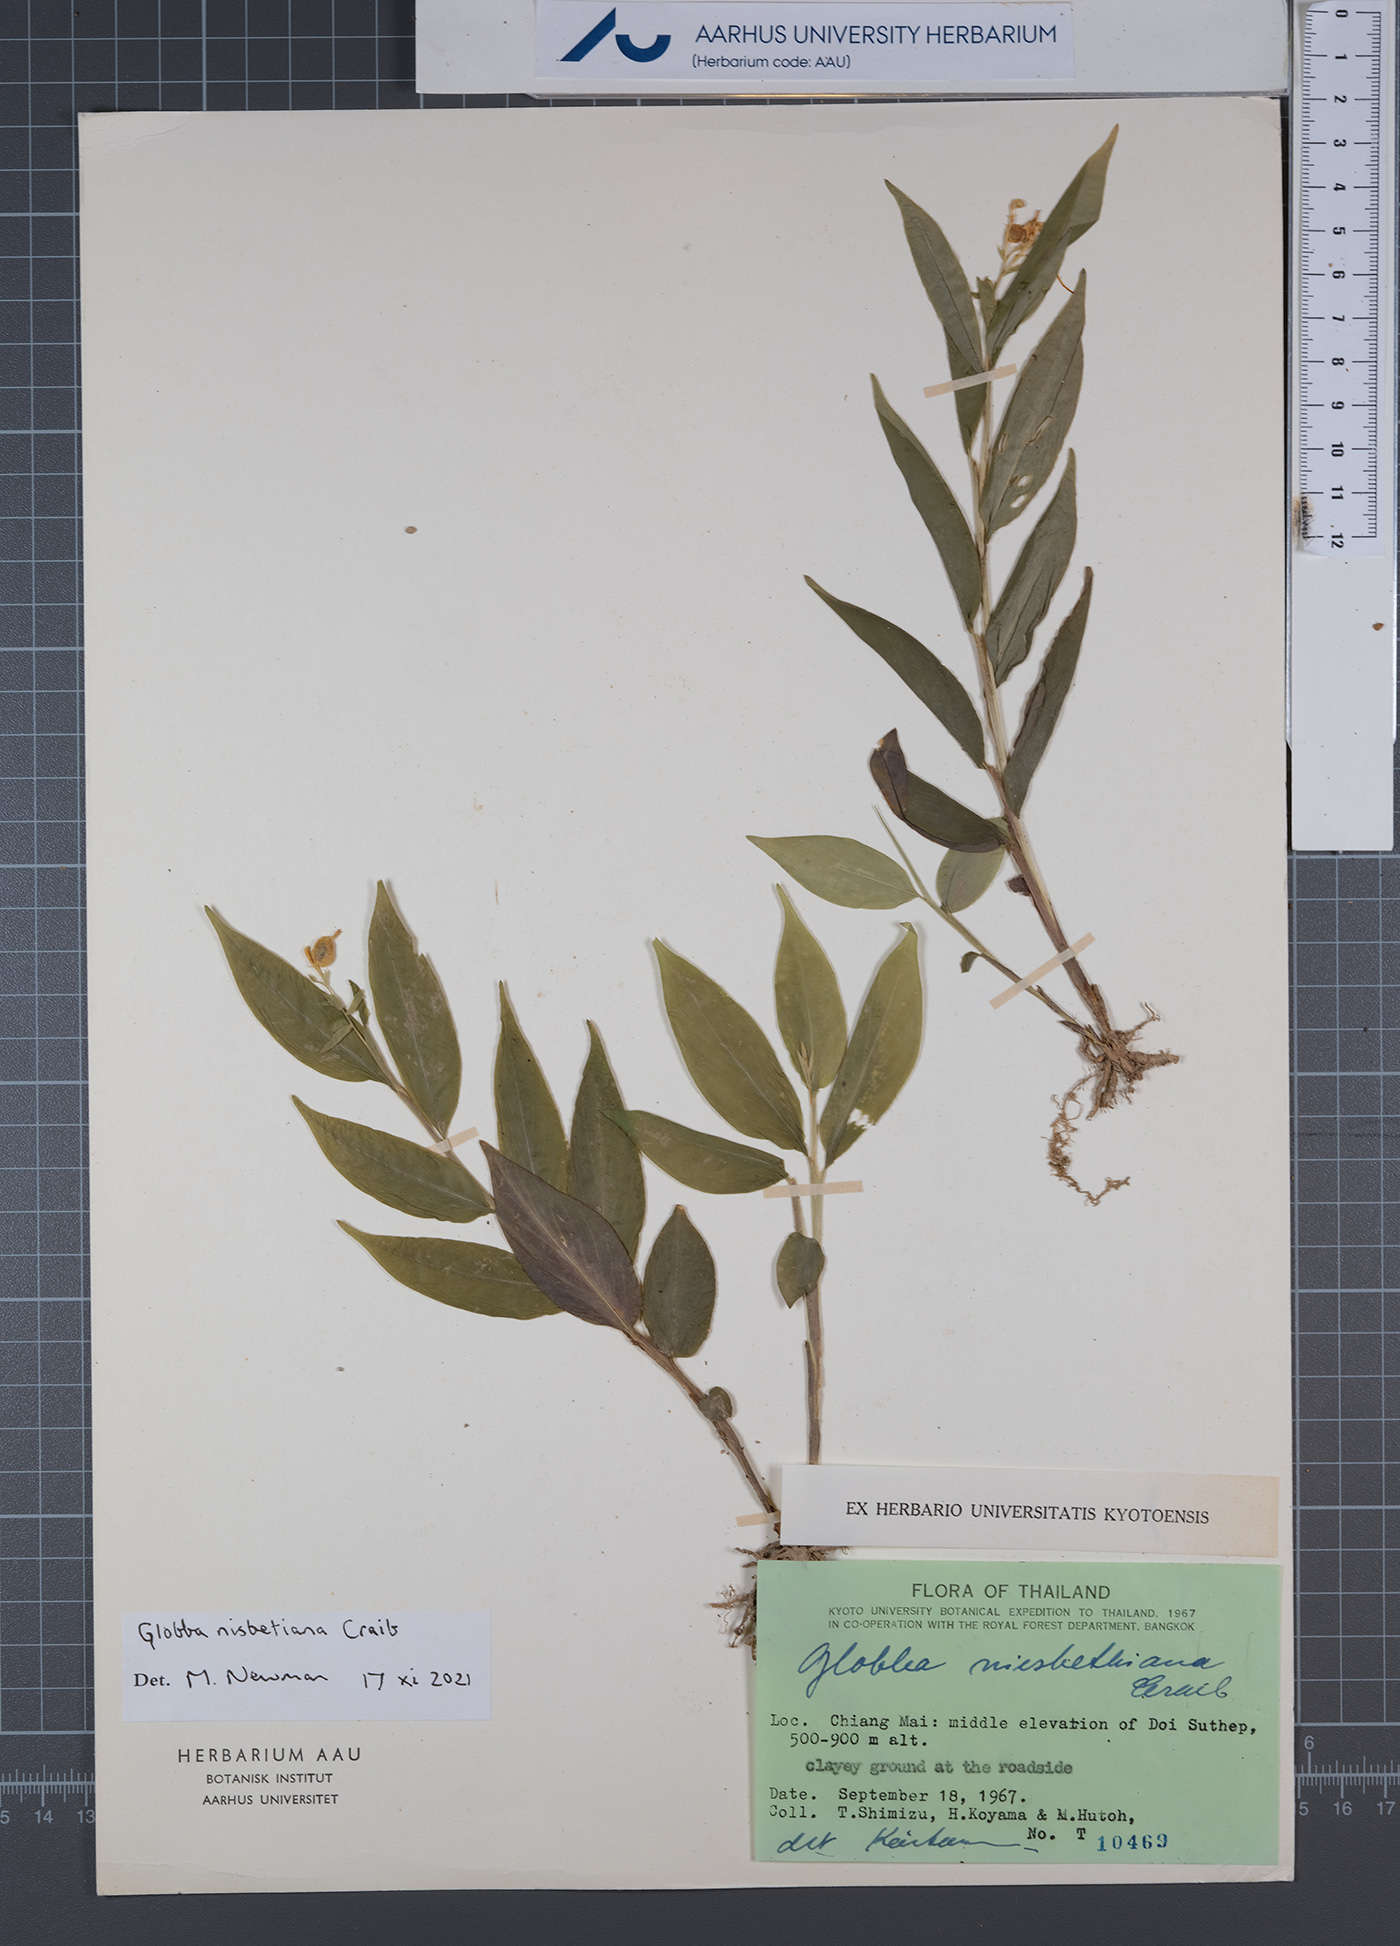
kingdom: Plantae
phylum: Tracheophyta
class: Liliopsida
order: Zingiberales
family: Zingiberaceae
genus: Globba
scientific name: Globba nisbetiana
